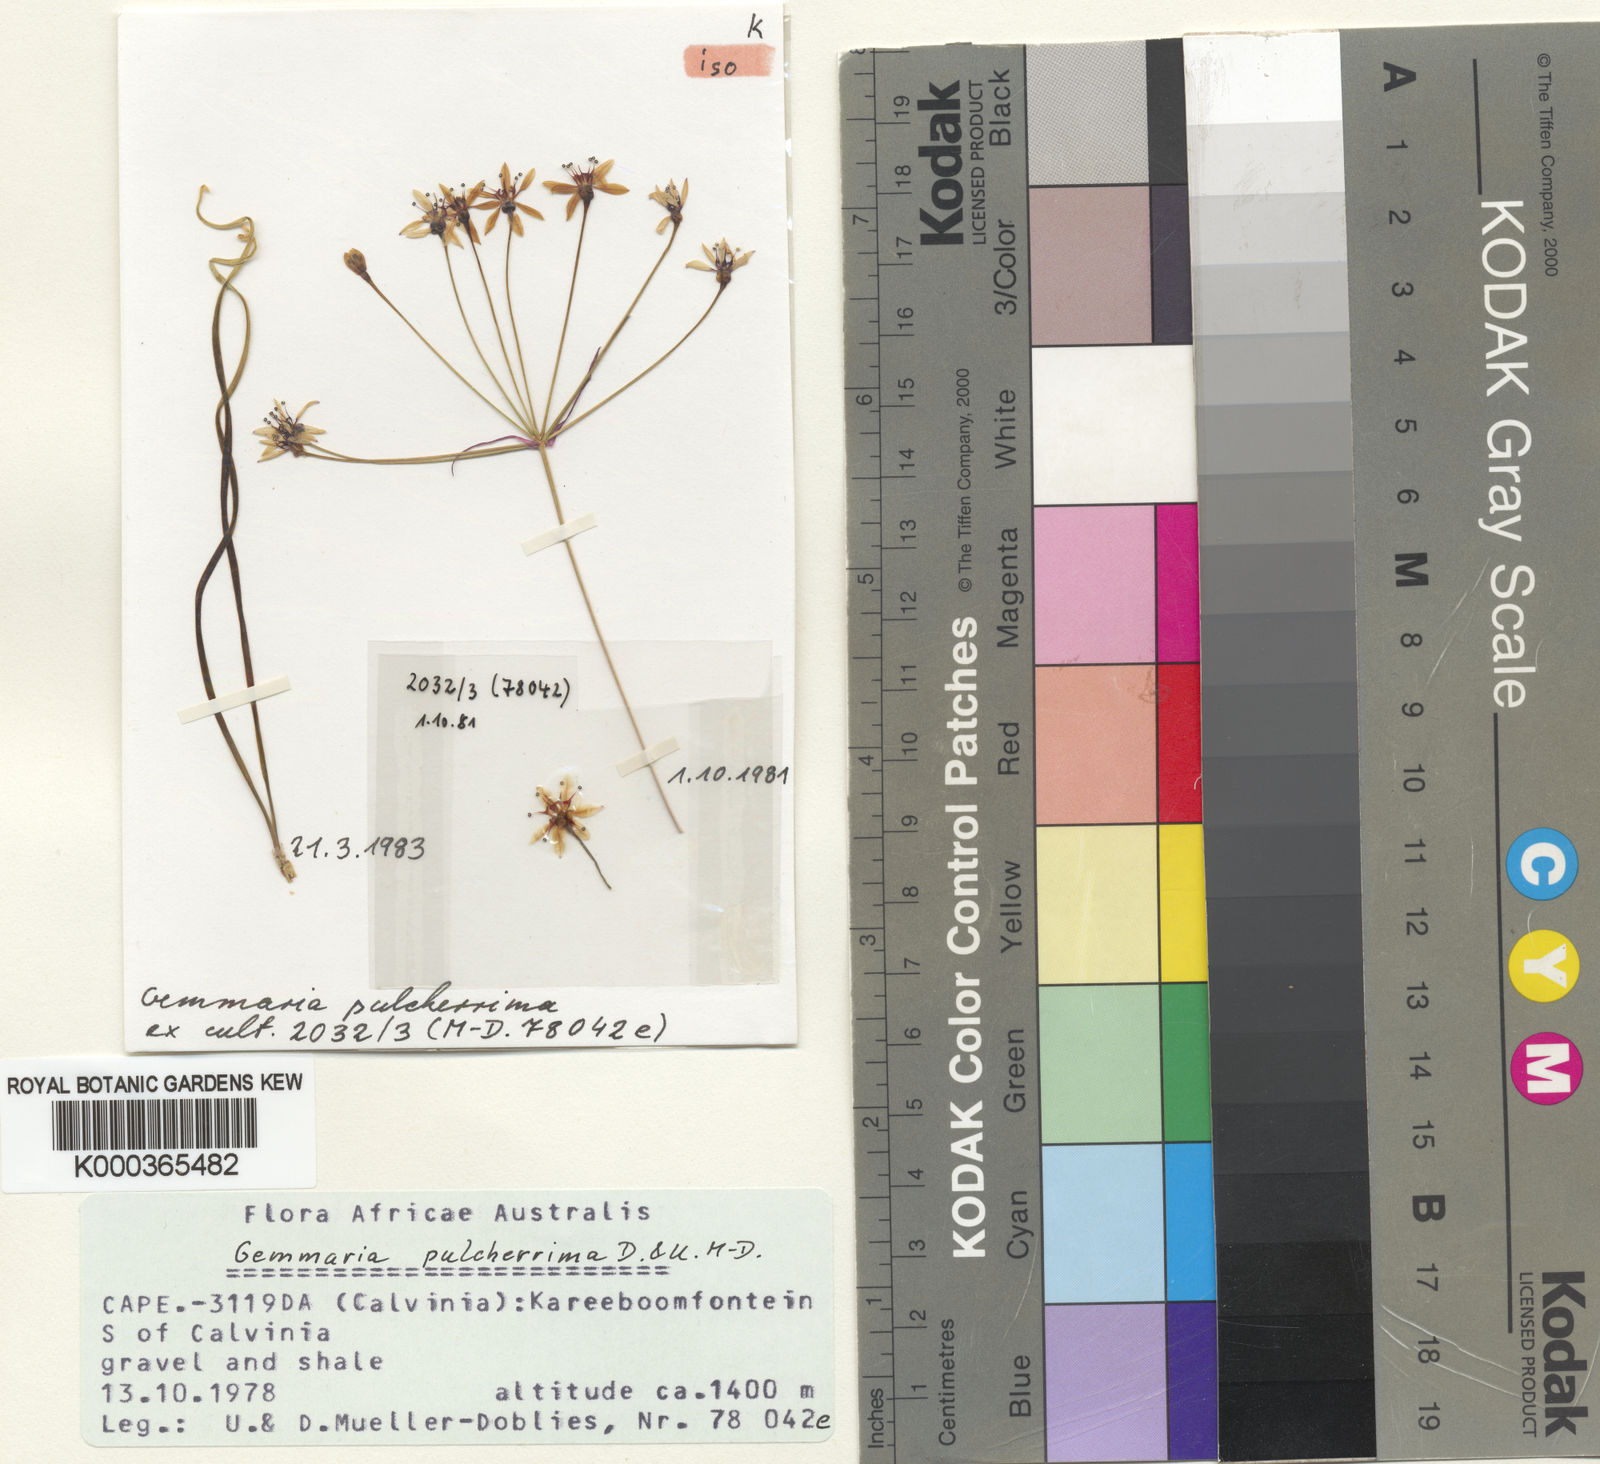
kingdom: Plantae
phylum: Tracheophyta
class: Liliopsida
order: Asparagales
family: Amaryllidaceae
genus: Hessea
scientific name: Hessea
